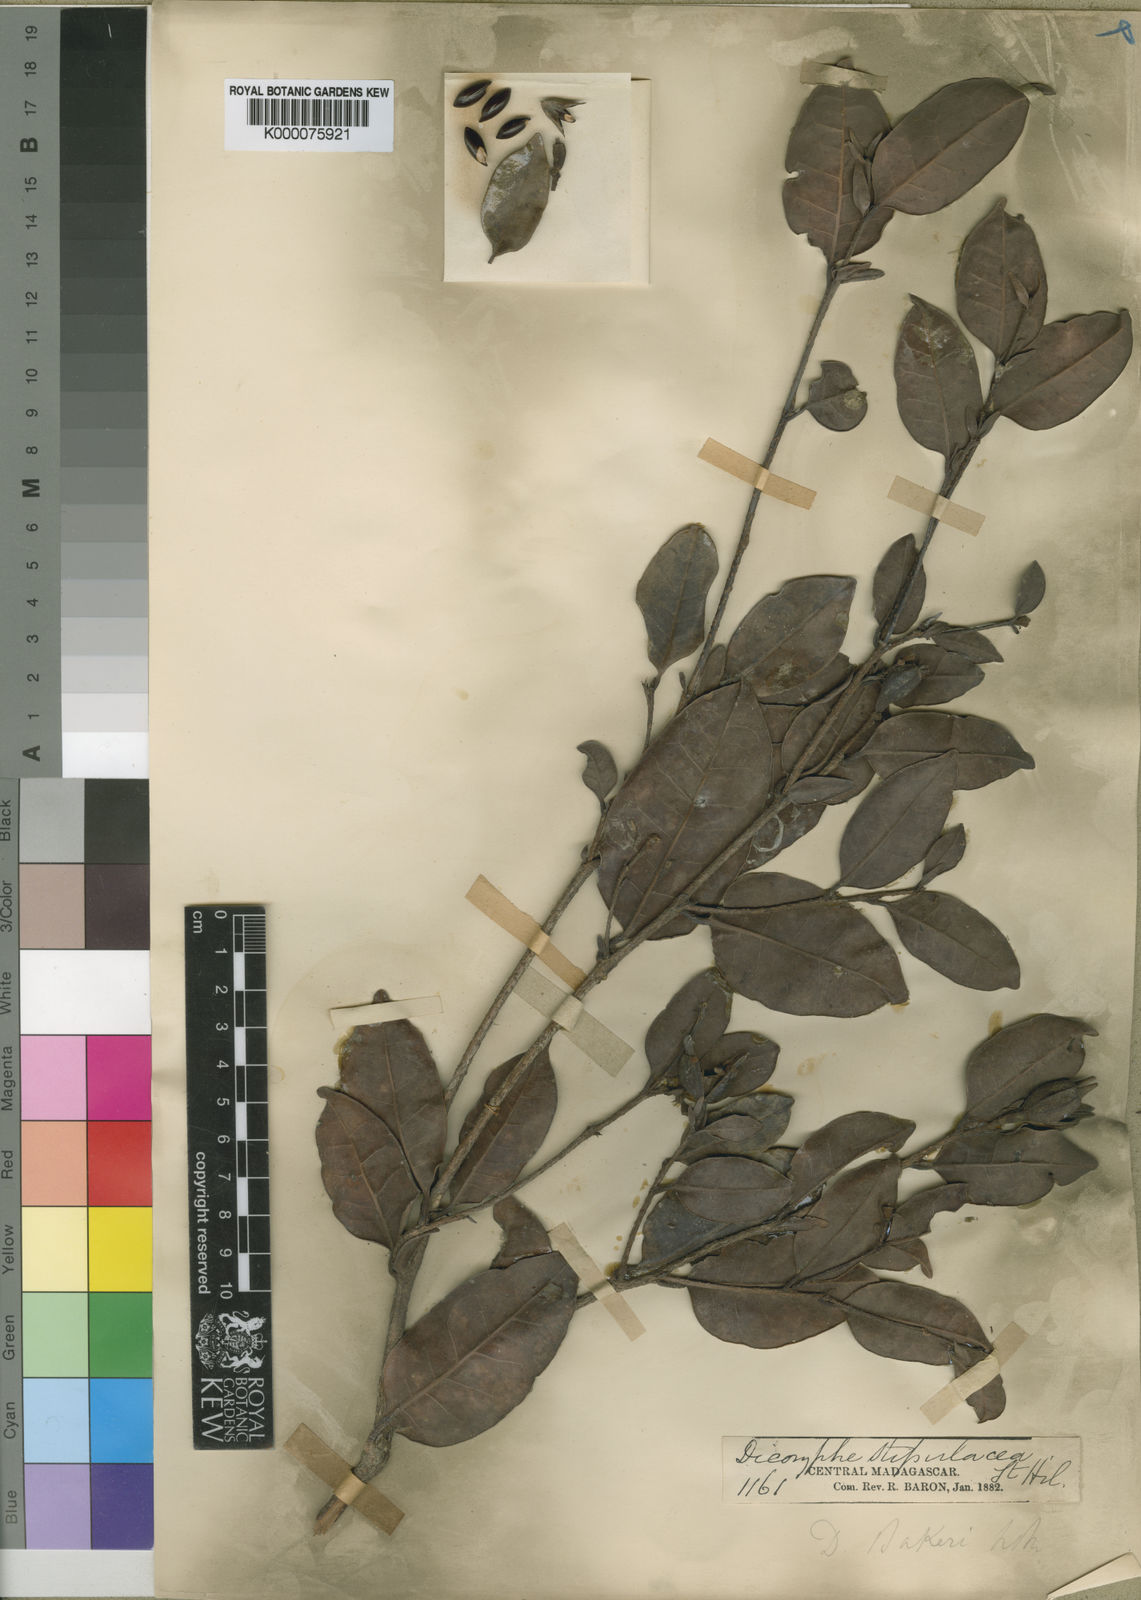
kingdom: Plantae
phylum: Tracheophyta
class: Magnoliopsida
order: Saxifragales
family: Hamamelidaceae
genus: Dicoryphe
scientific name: Dicoryphe
